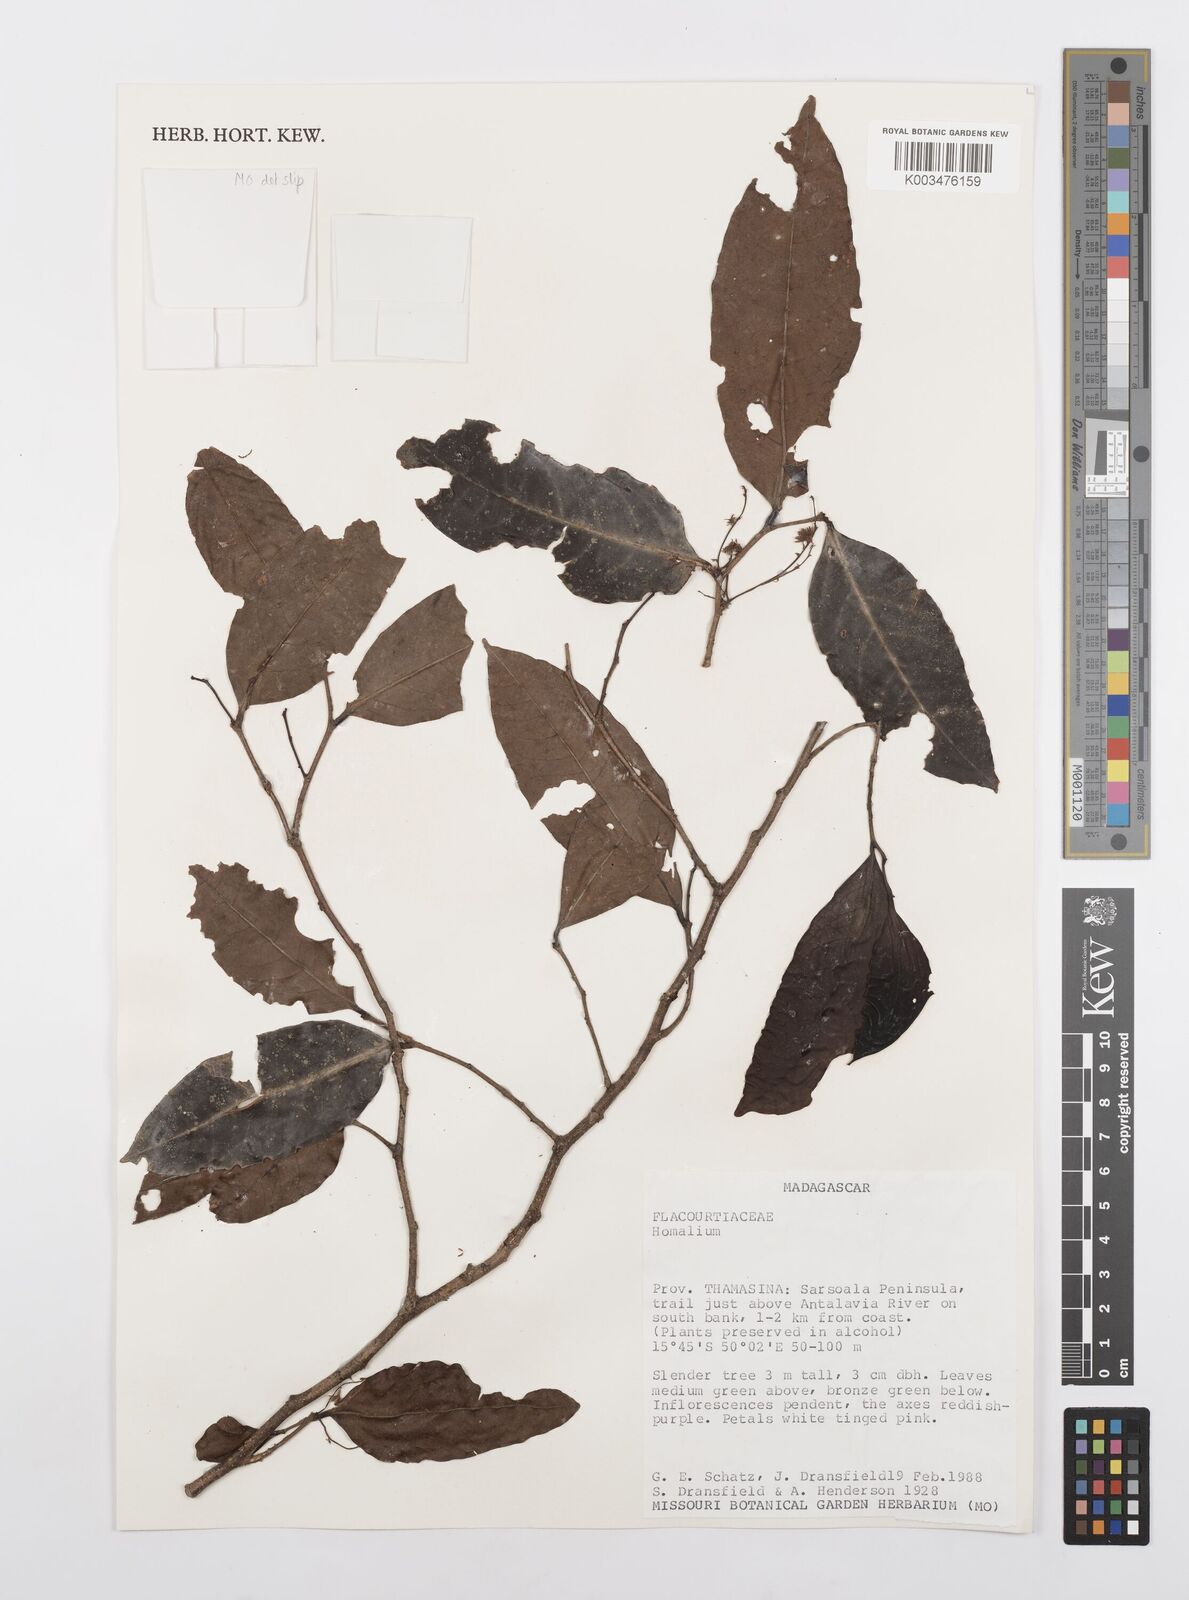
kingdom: Plantae
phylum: Tracheophyta
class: Magnoliopsida
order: Malpighiales
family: Salicaceae
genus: Homalium
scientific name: Homalium
